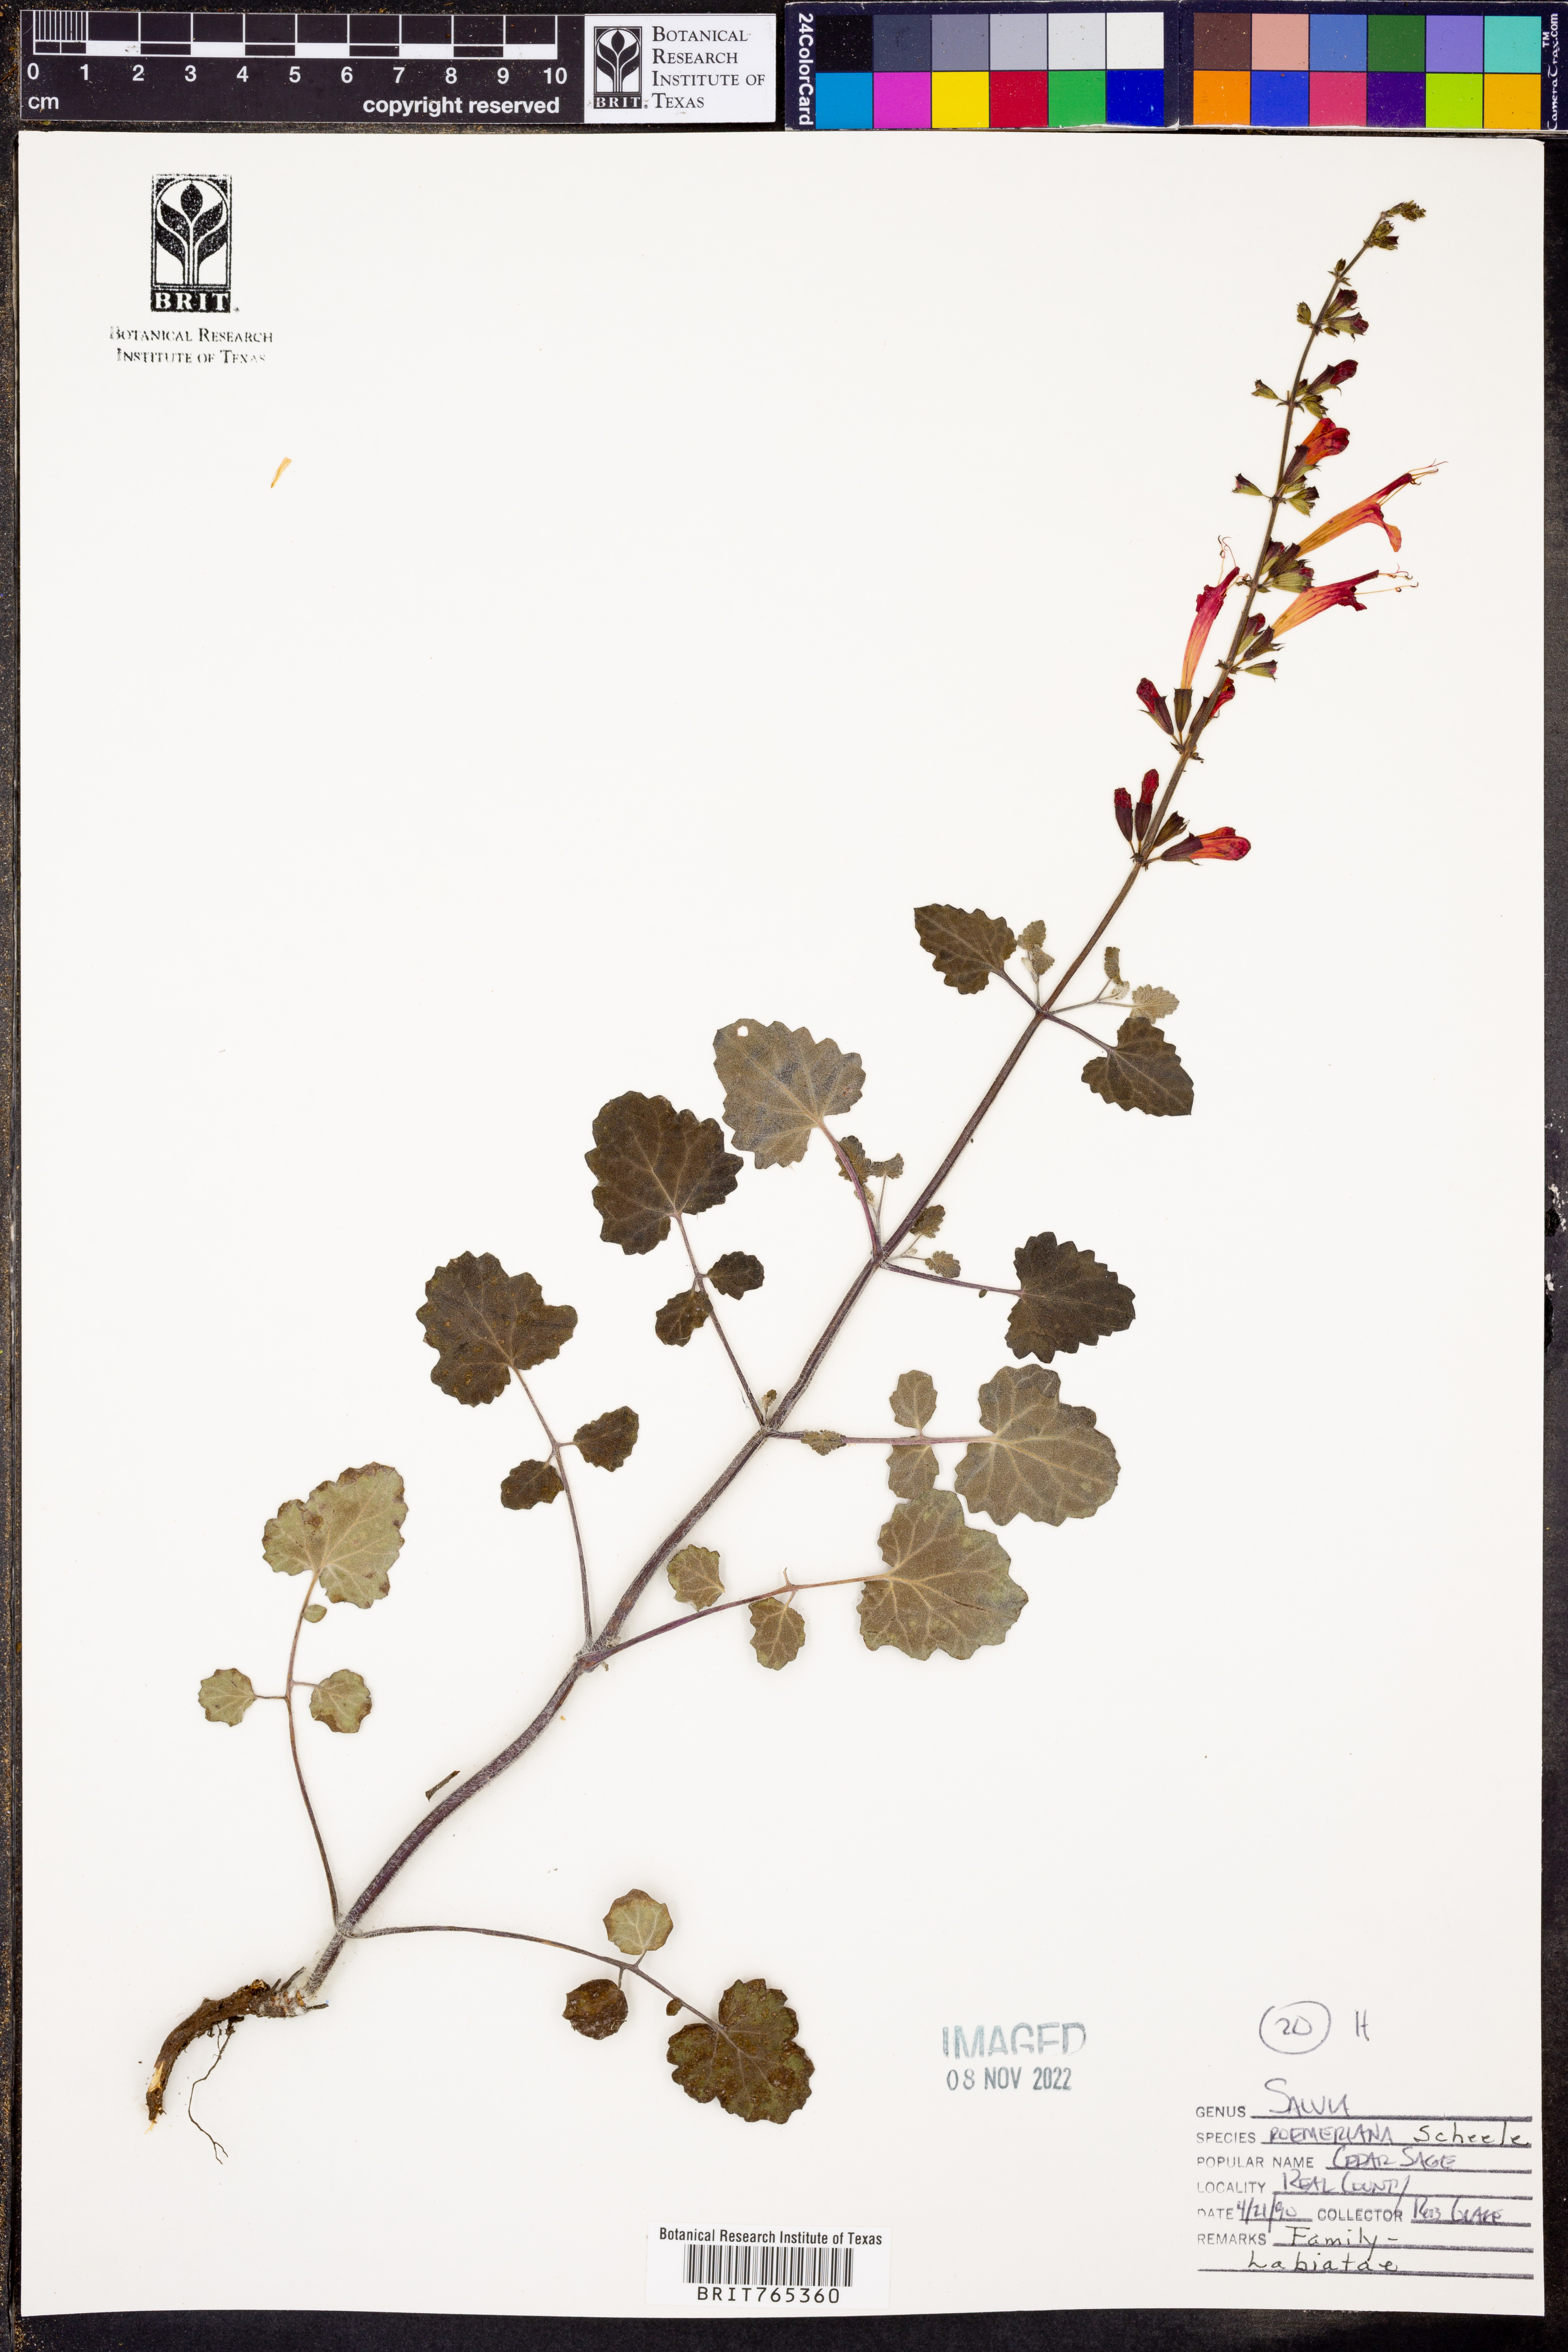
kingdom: Plantae
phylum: Tracheophyta
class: Magnoliopsida
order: Lamiales
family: Lamiaceae
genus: Salvia
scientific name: Salvia roemeriana
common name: Cedar sage
